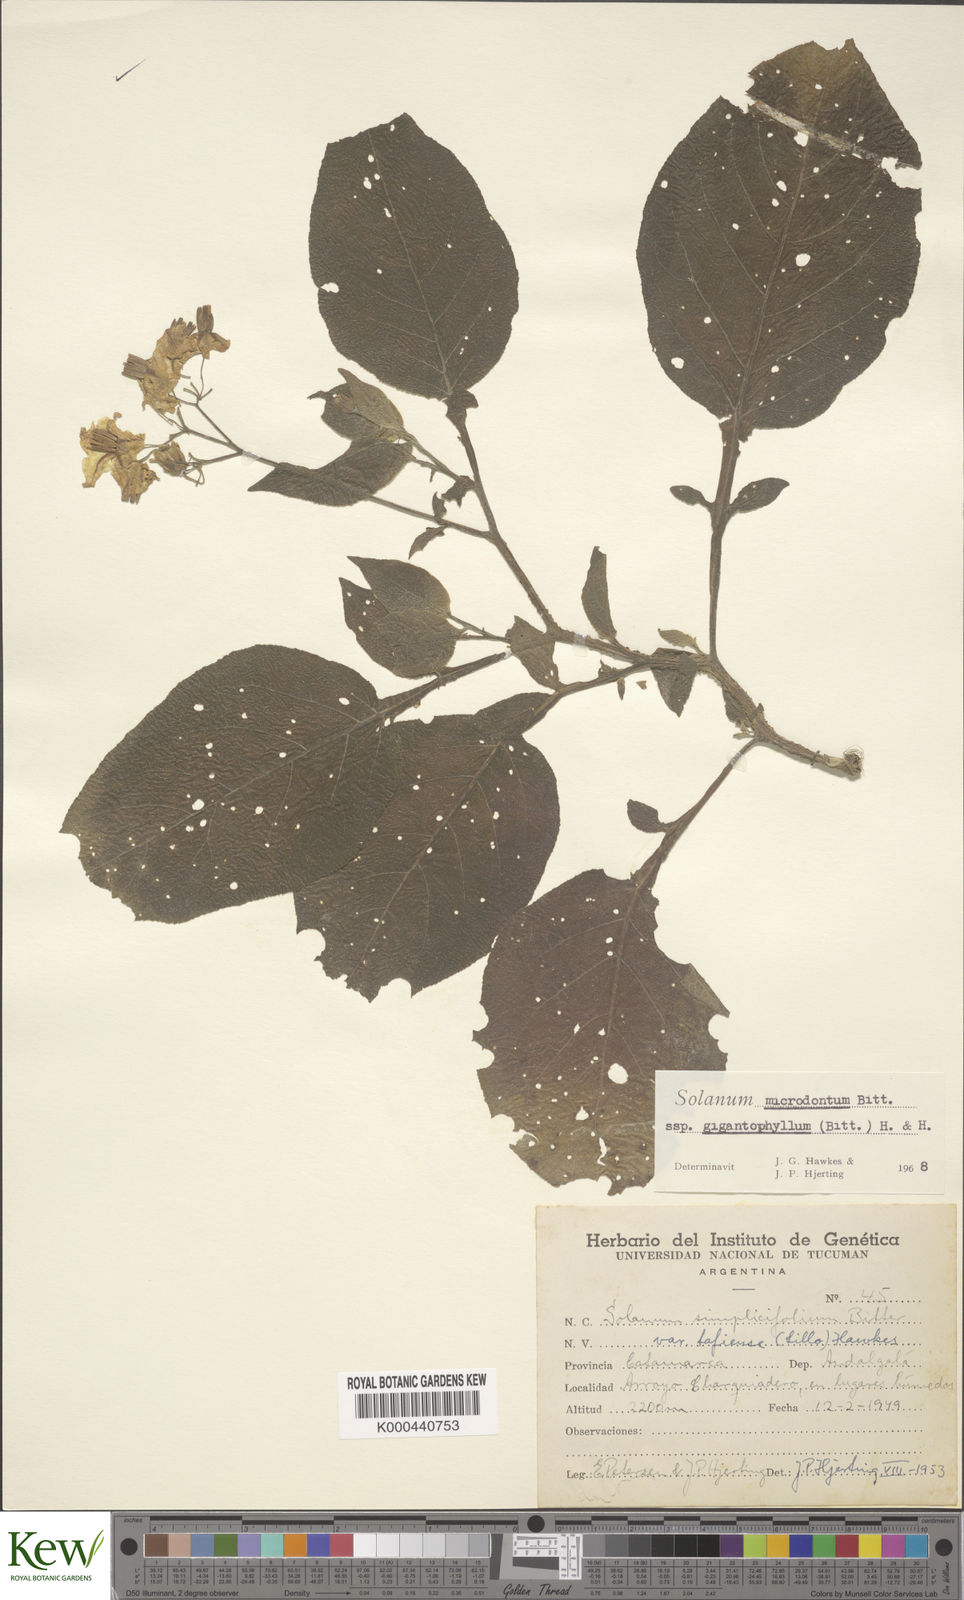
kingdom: Plantae
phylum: Tracheophyta
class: Magnoliopsida
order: Solanales
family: Solanaceae
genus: Solanum
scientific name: Solanum microdontum
